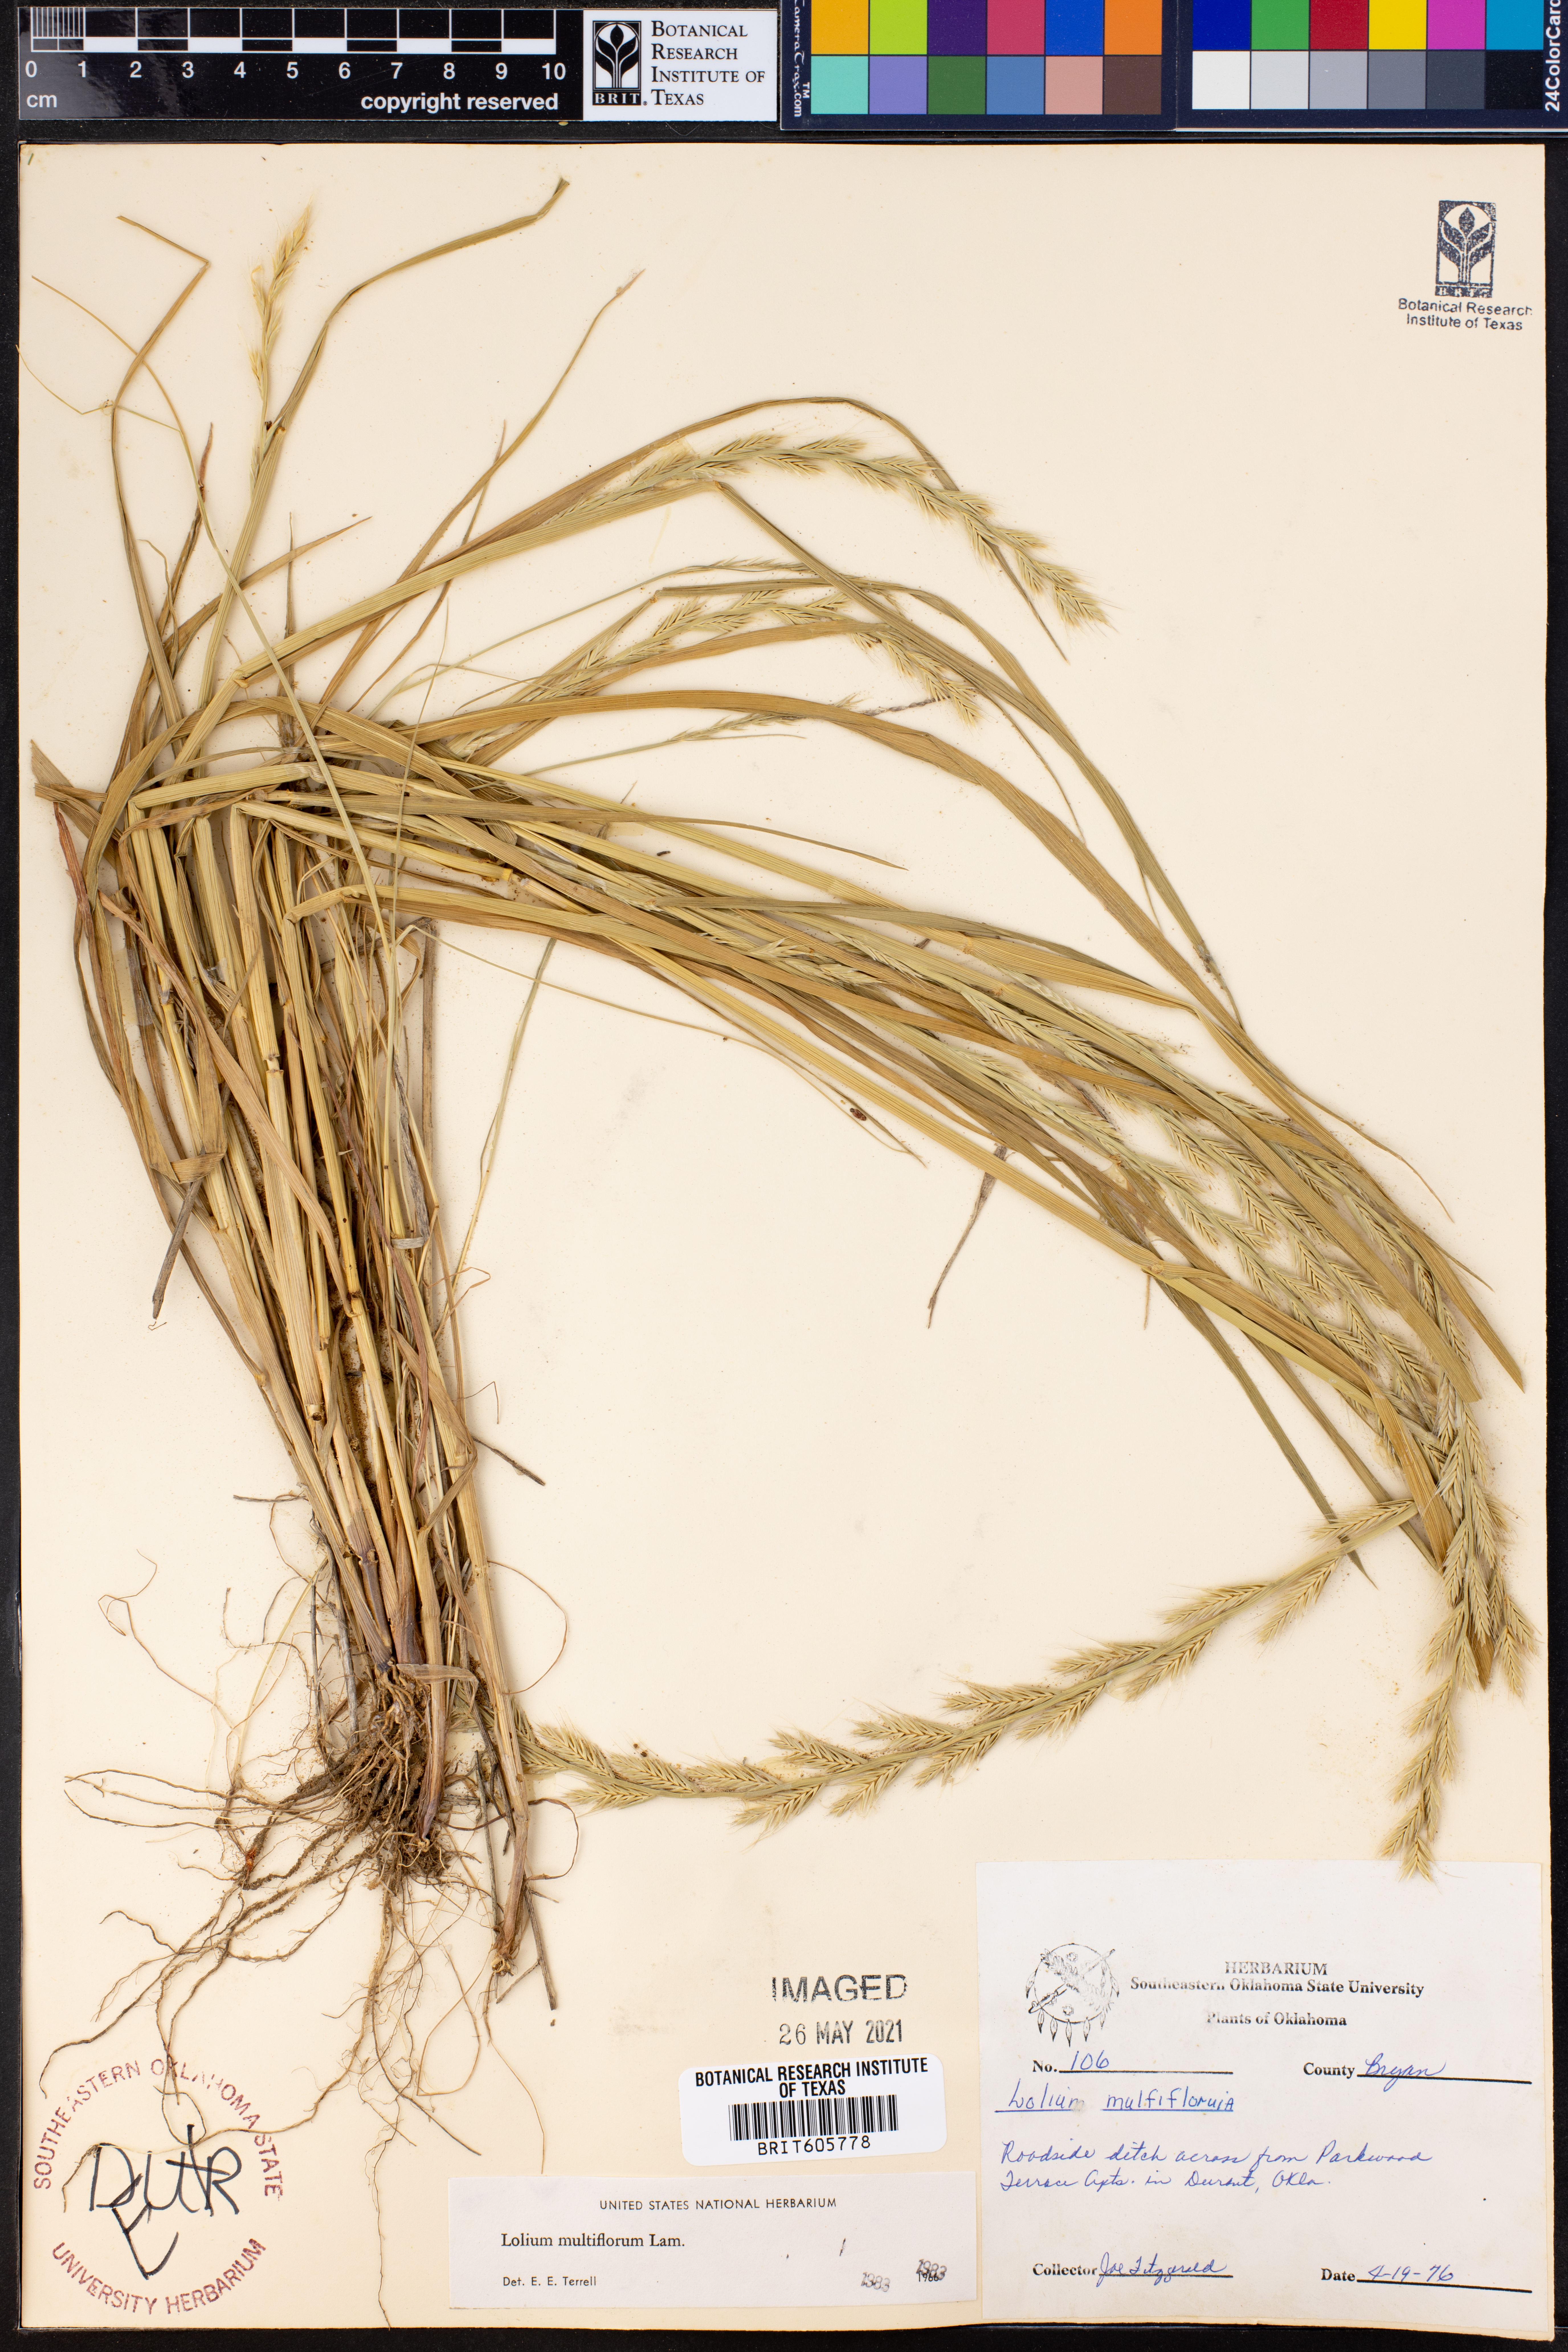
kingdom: Plantae
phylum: Tracheophyta
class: Liliopsida
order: Poales
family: Poaceae
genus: Lolium
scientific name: Lolium multiflorum
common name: Annual ryegrass
